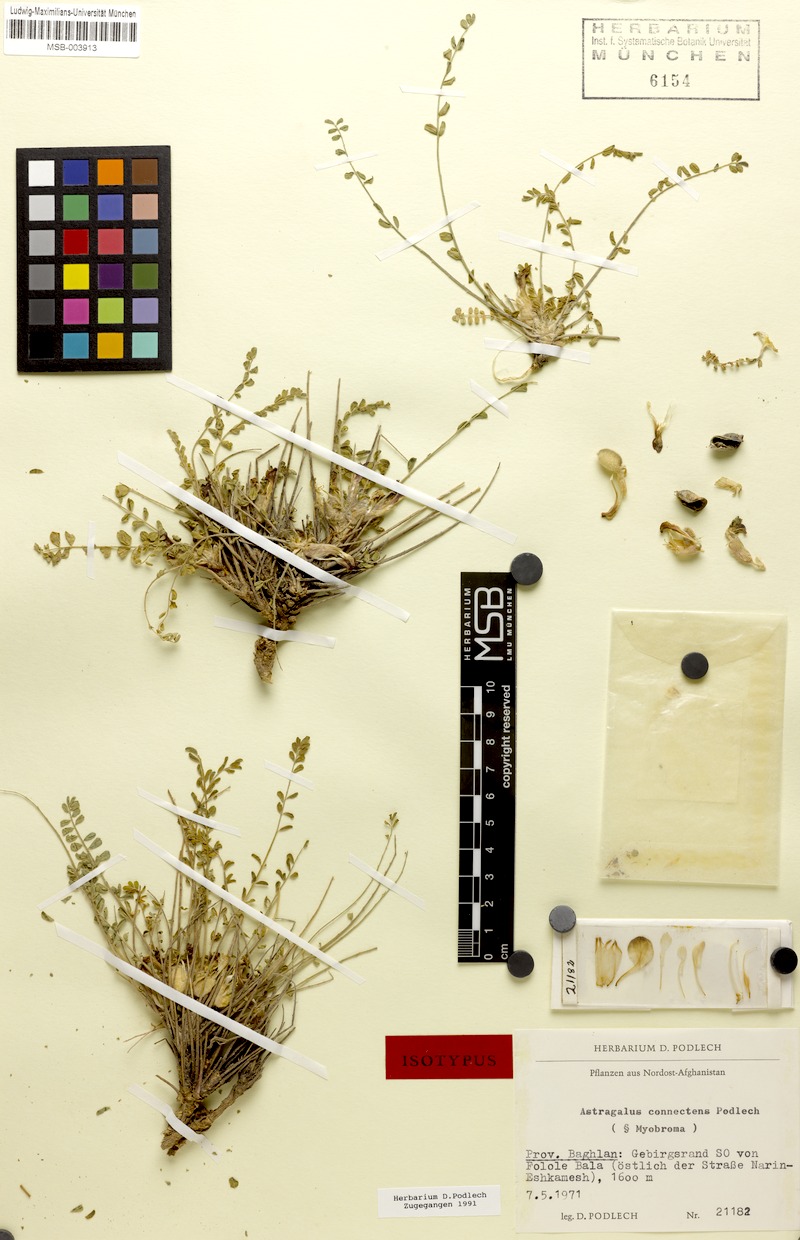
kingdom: Plantae
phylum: Tracheophyta
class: Magnoliopsida
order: Fabales
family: Fabaceae
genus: Astragalus
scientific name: Astragalus connectens
